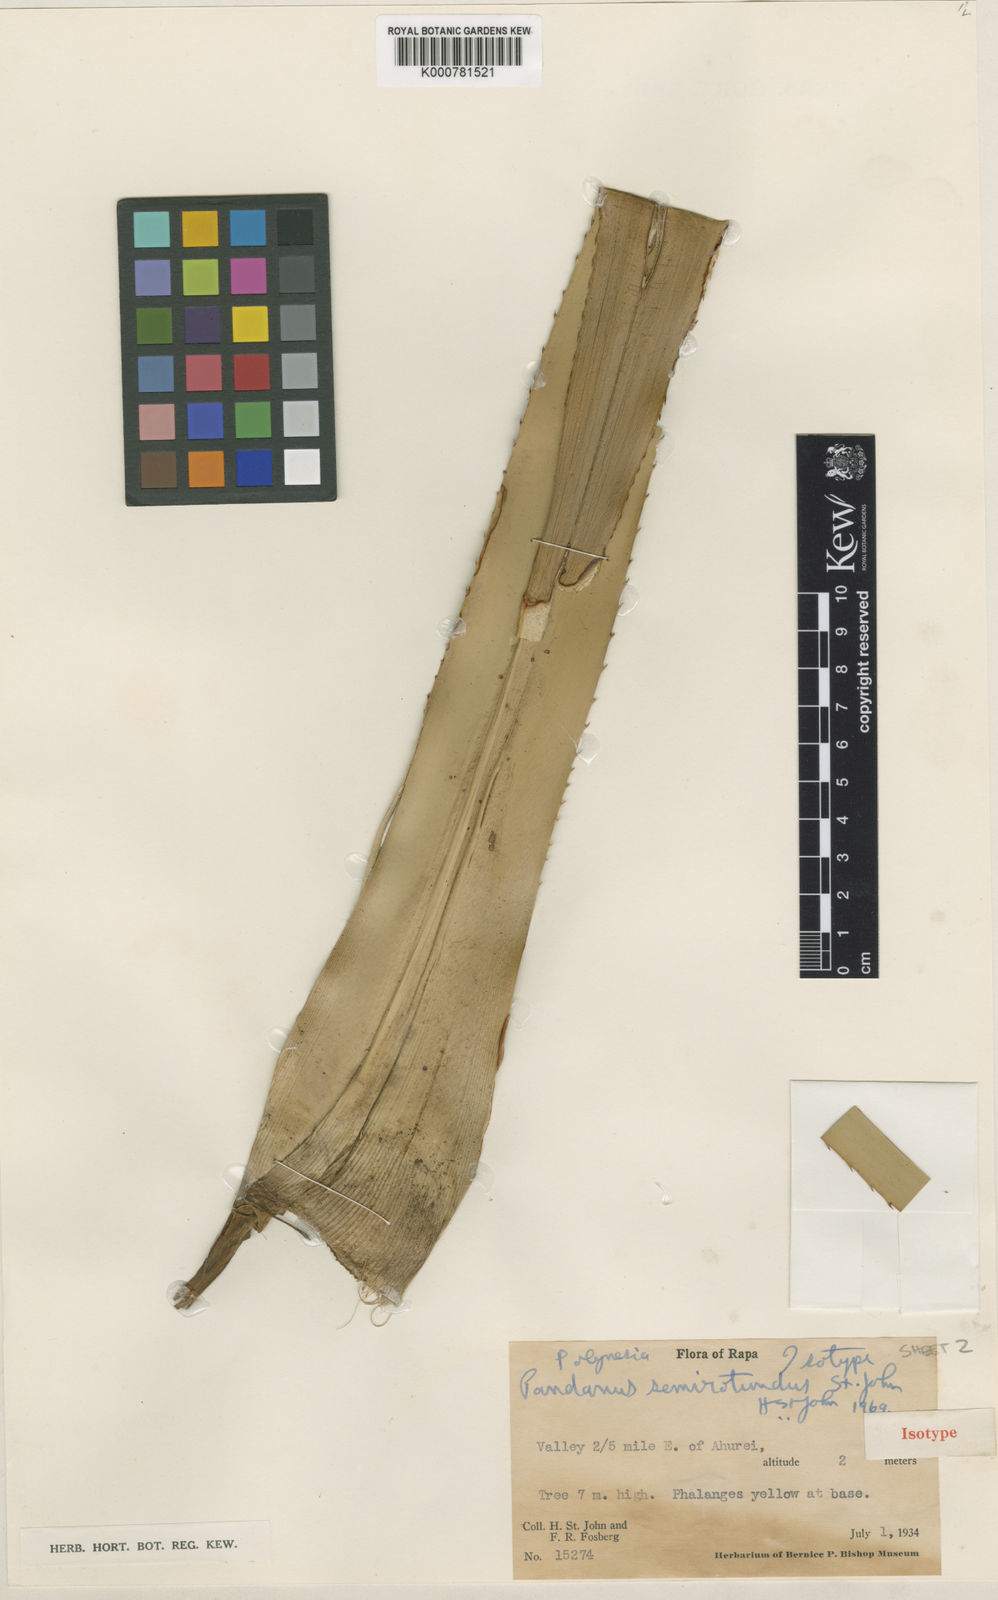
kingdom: Plantae
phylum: Tracheophyta
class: Liliopsida
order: Pandanales
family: Pandanaceae
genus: Pandanus
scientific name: Pandanus
